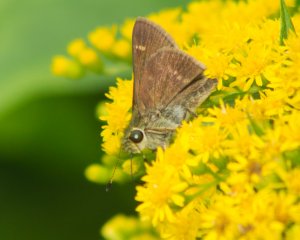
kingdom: Animalia
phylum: Arthropoda
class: Insecta
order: Lepidoptera
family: Hesperiidae
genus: Vernia
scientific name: Vernia verna
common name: Little Glassywing
